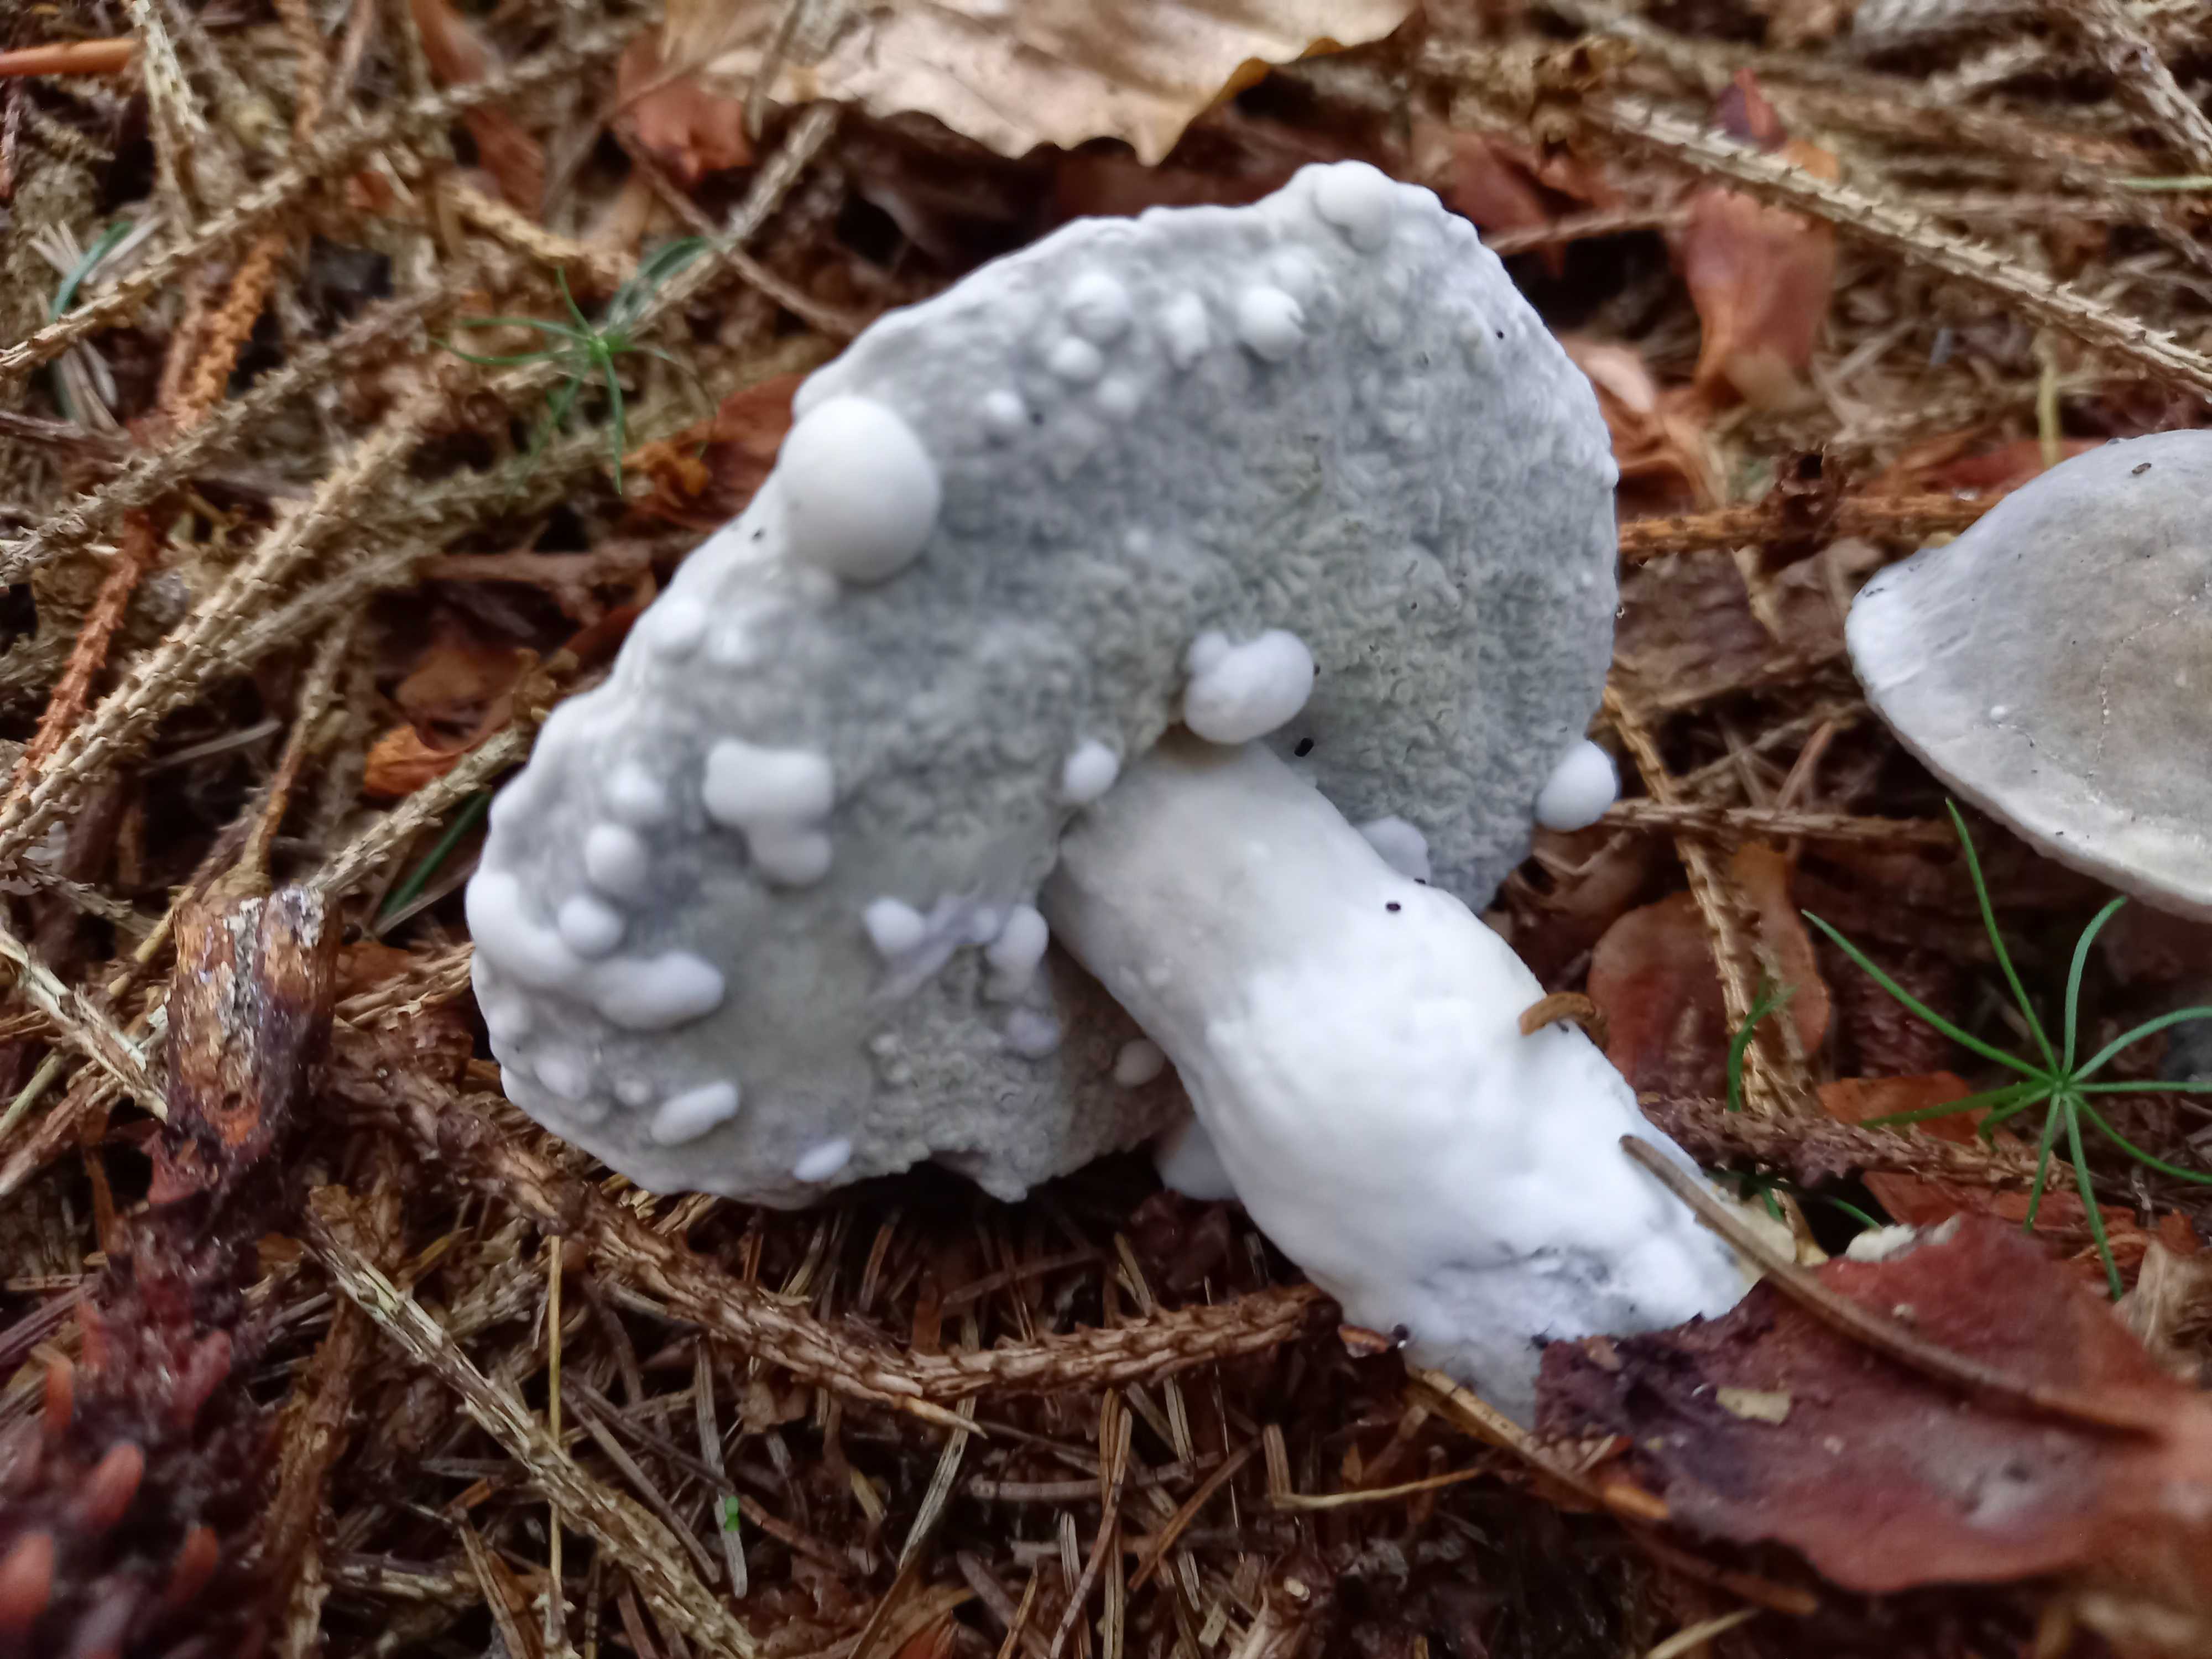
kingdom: Fungi
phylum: Ascomycota
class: Sordariomycetes
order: Hypocreales
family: Hypocreaceae
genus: Hypomyces
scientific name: Hypomyces
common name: snylteskorpe
